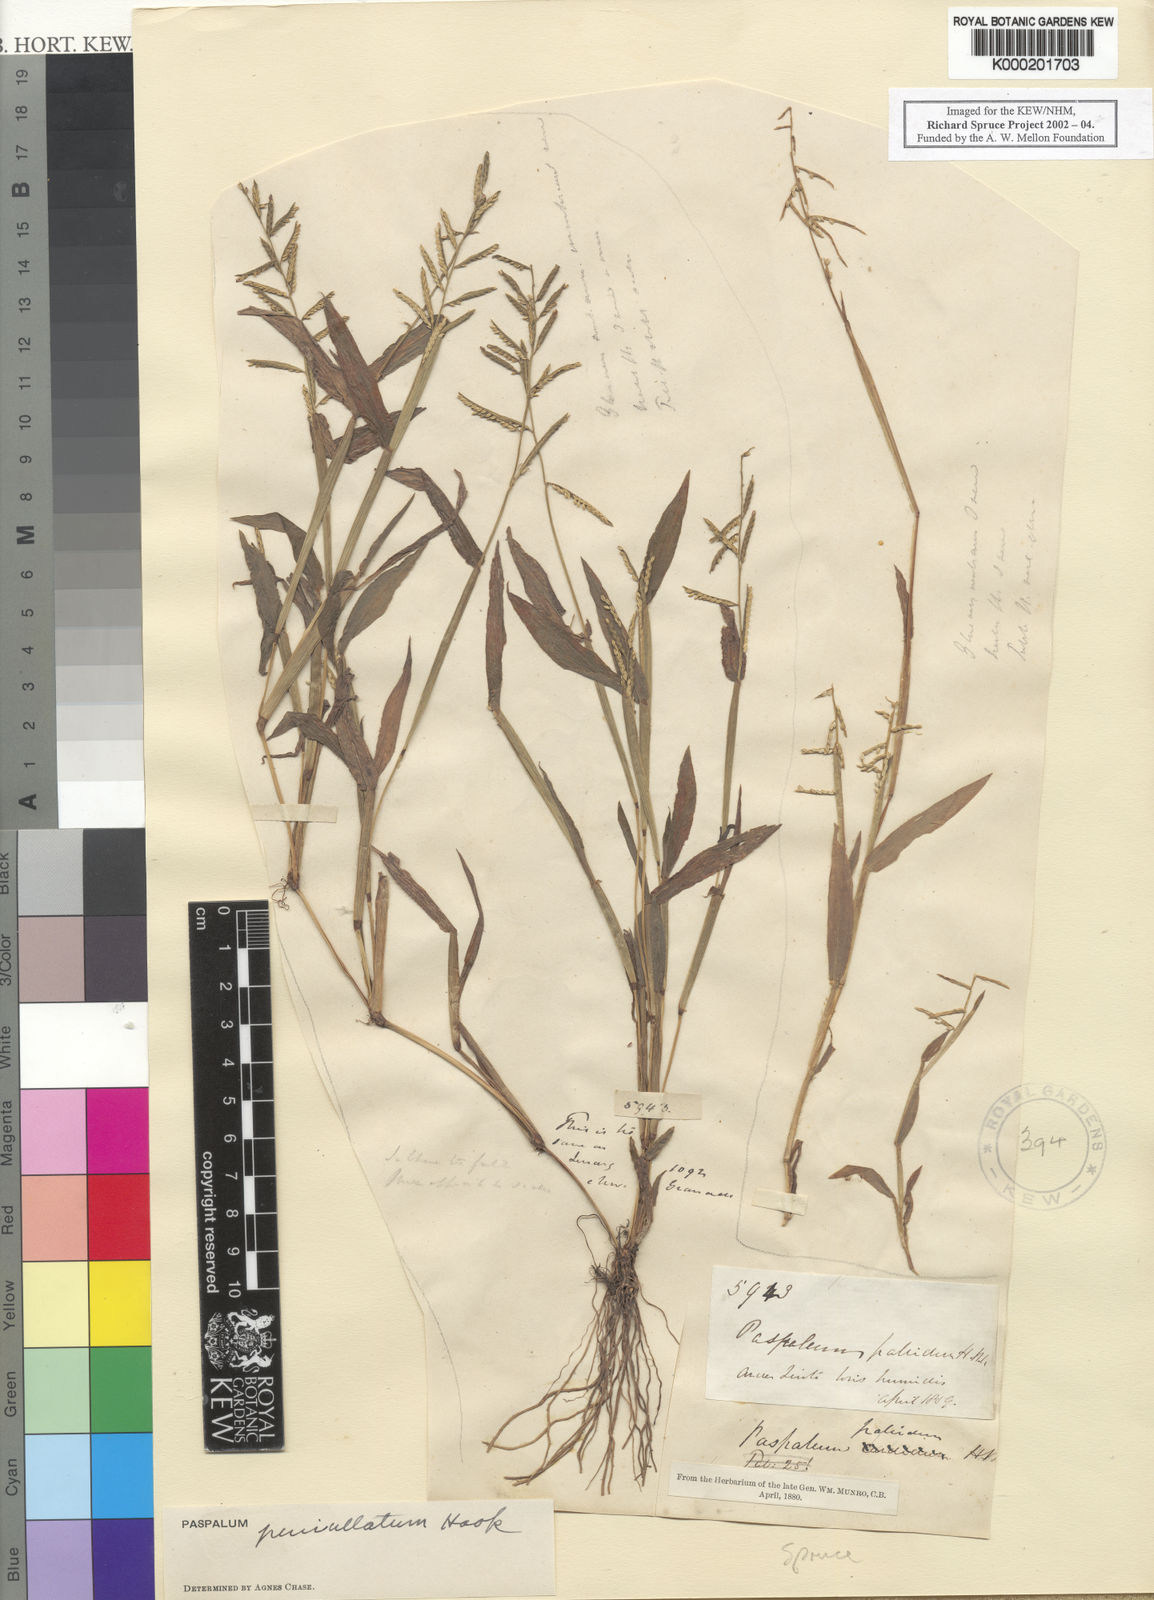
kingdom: Plantae
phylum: Tracheophyta
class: Liliopsida
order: Poales
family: Poaceae
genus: Paspalum
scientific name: Paspalum penicillatum
